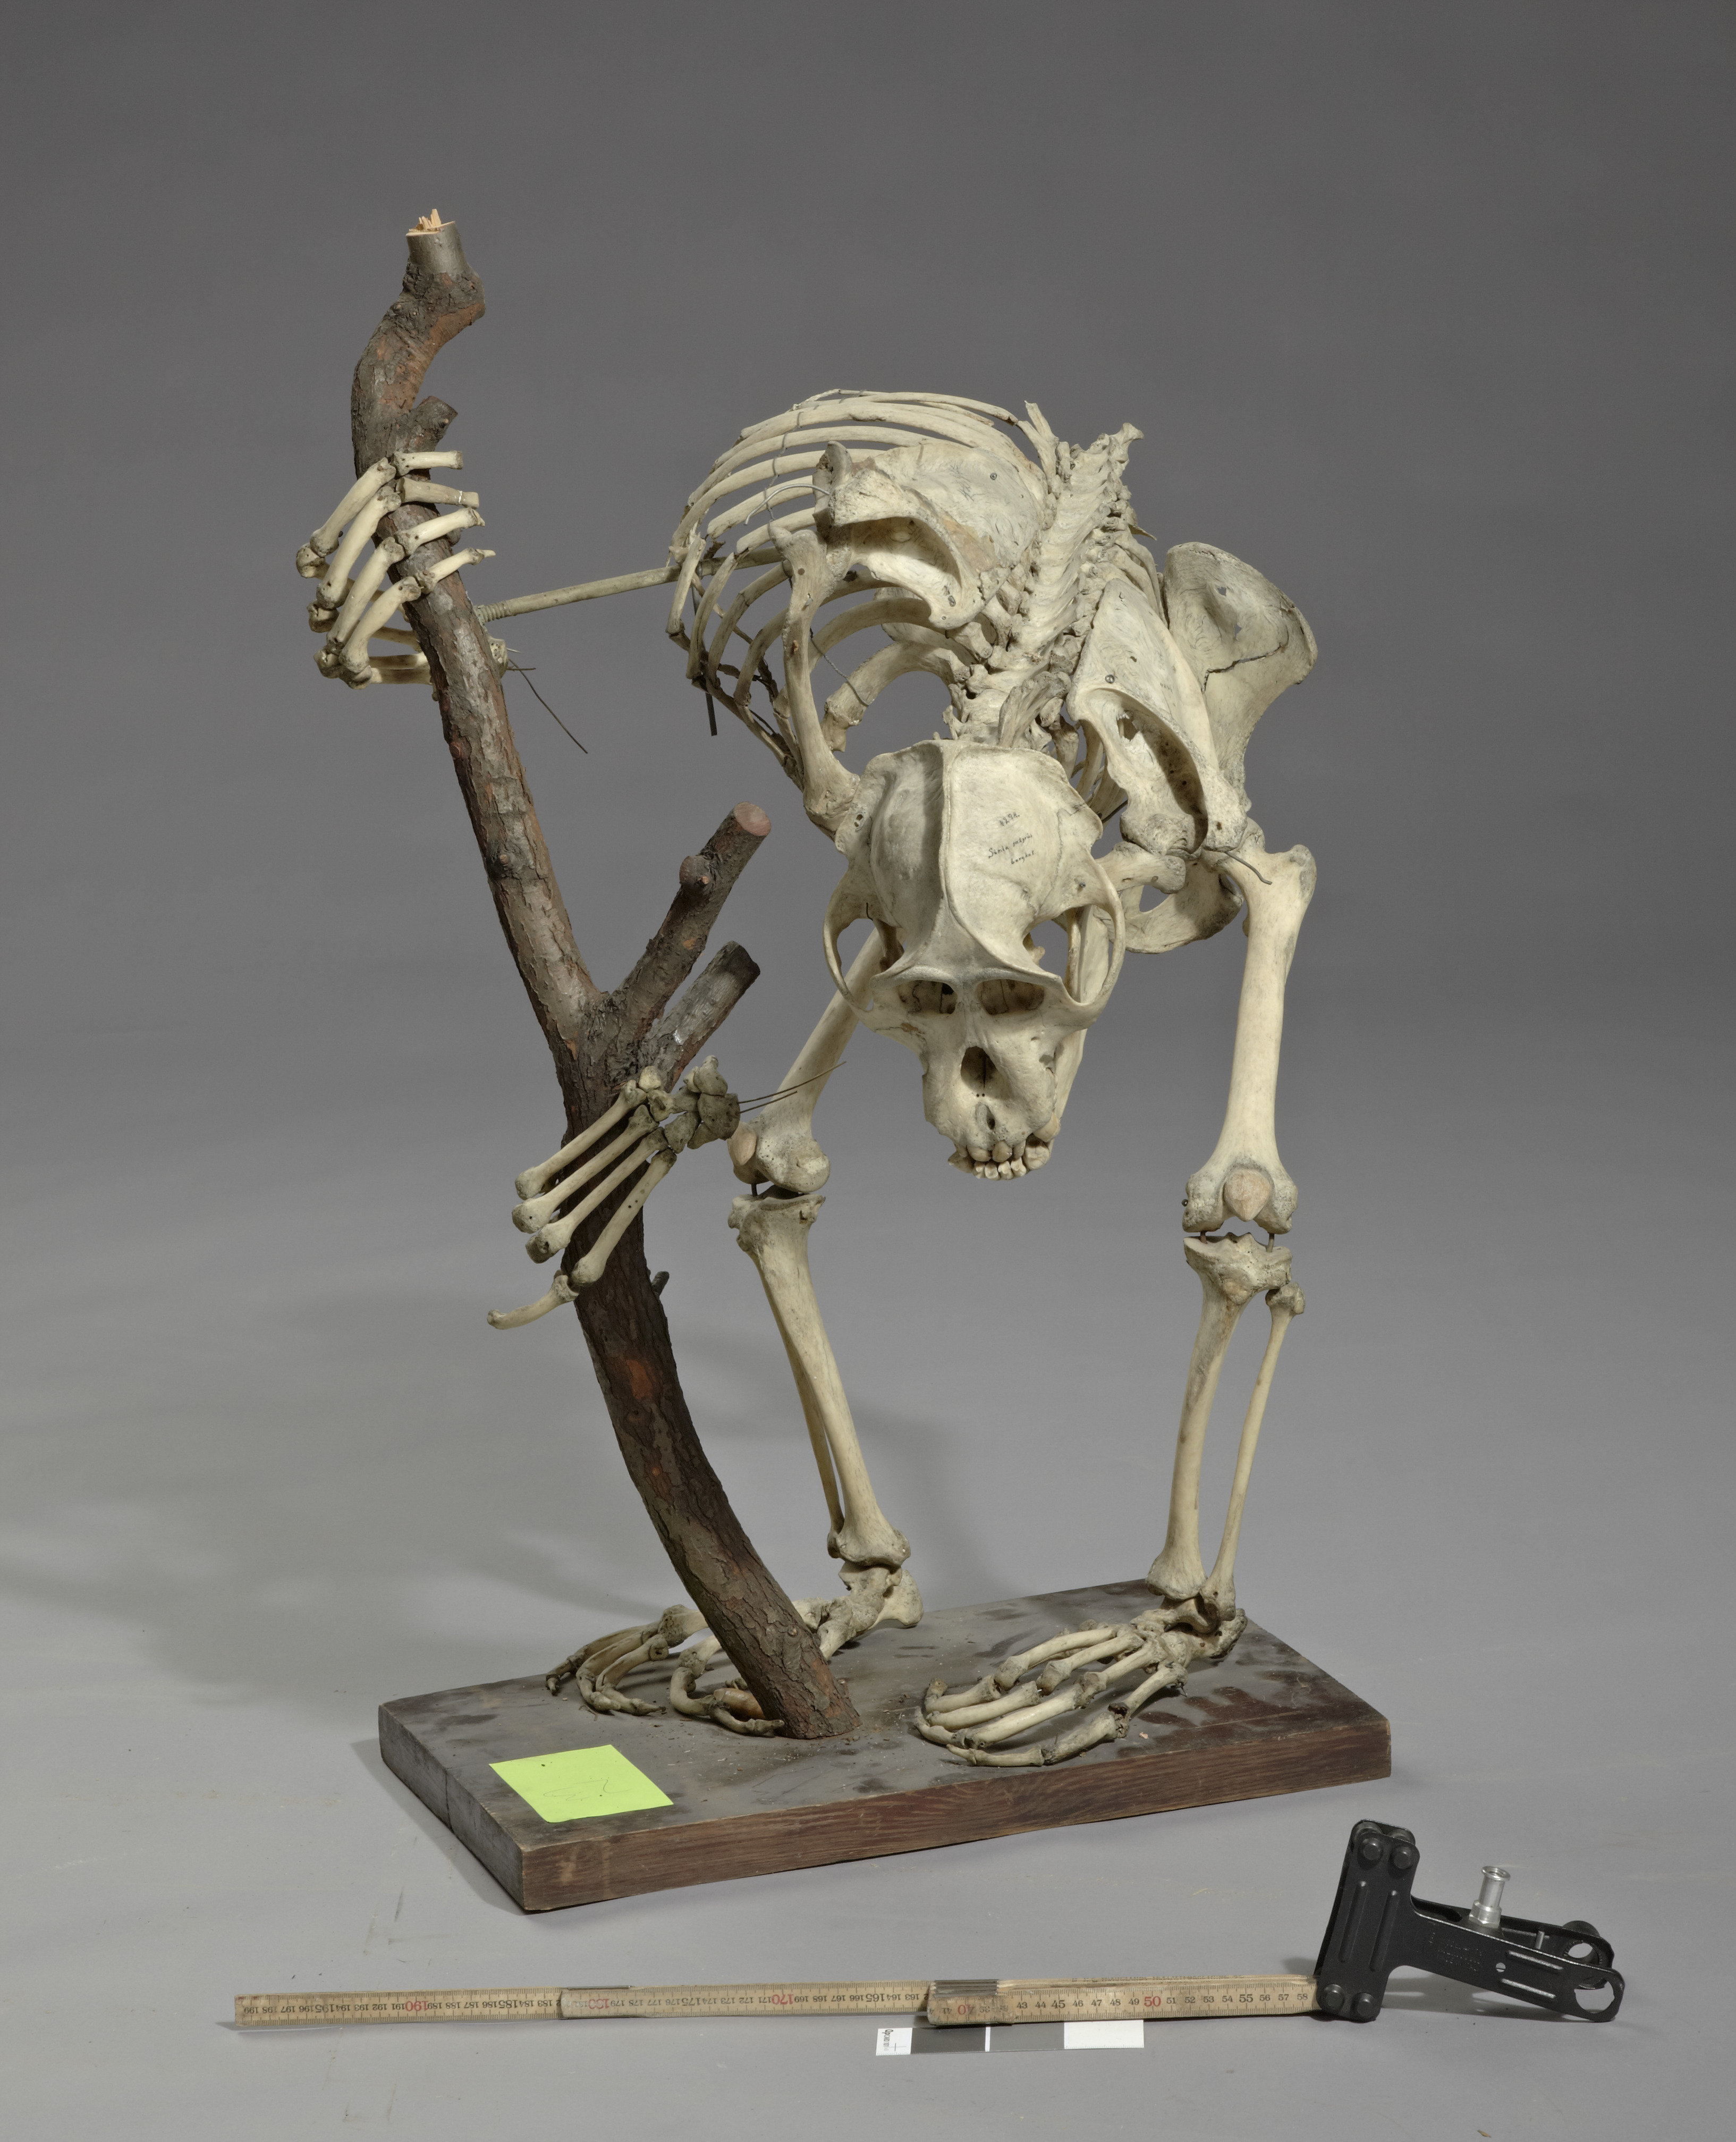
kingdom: Animalia
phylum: Chordata
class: Mammalia
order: Primates
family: Hominidae
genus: Pongo
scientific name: Pongo pygmaeus
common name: Bornean orangutan
